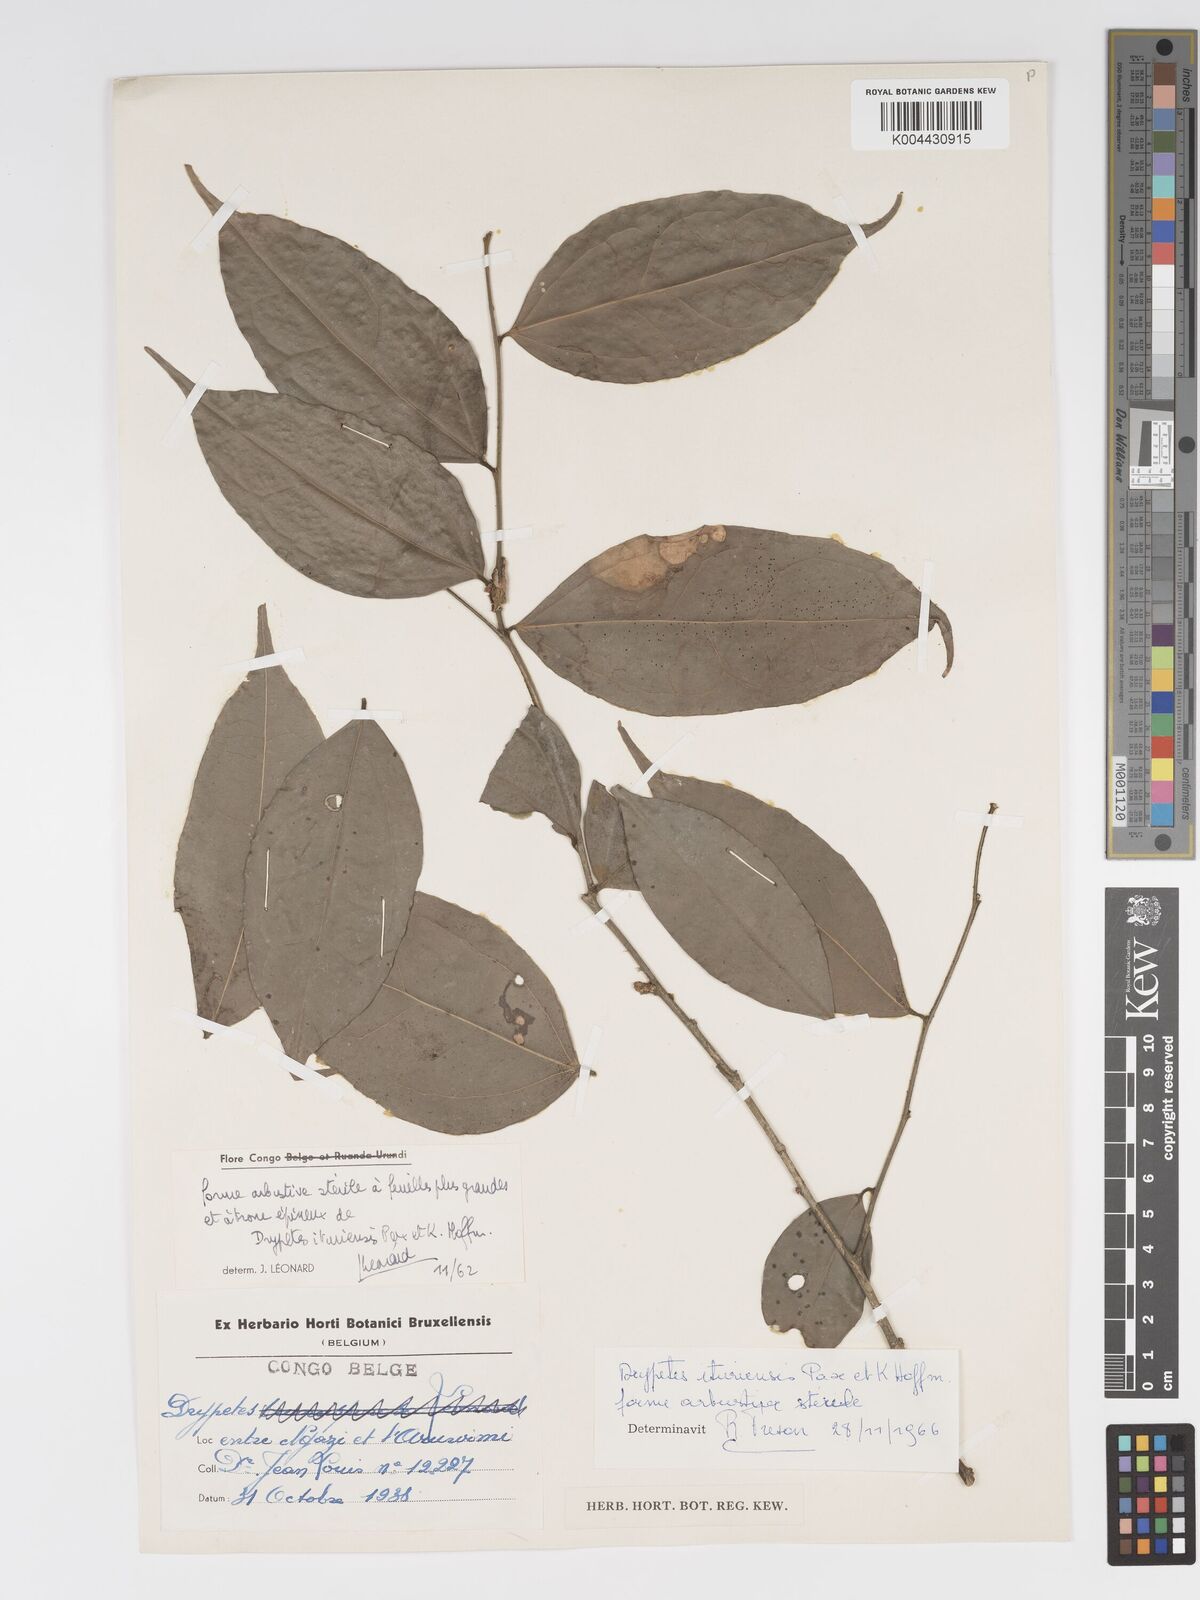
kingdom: Plantae
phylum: Tracheophyta
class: Magnoliopsida
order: Malpighiales
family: Putranjivaceae
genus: Drypetes
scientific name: Drypetes ituriensis
